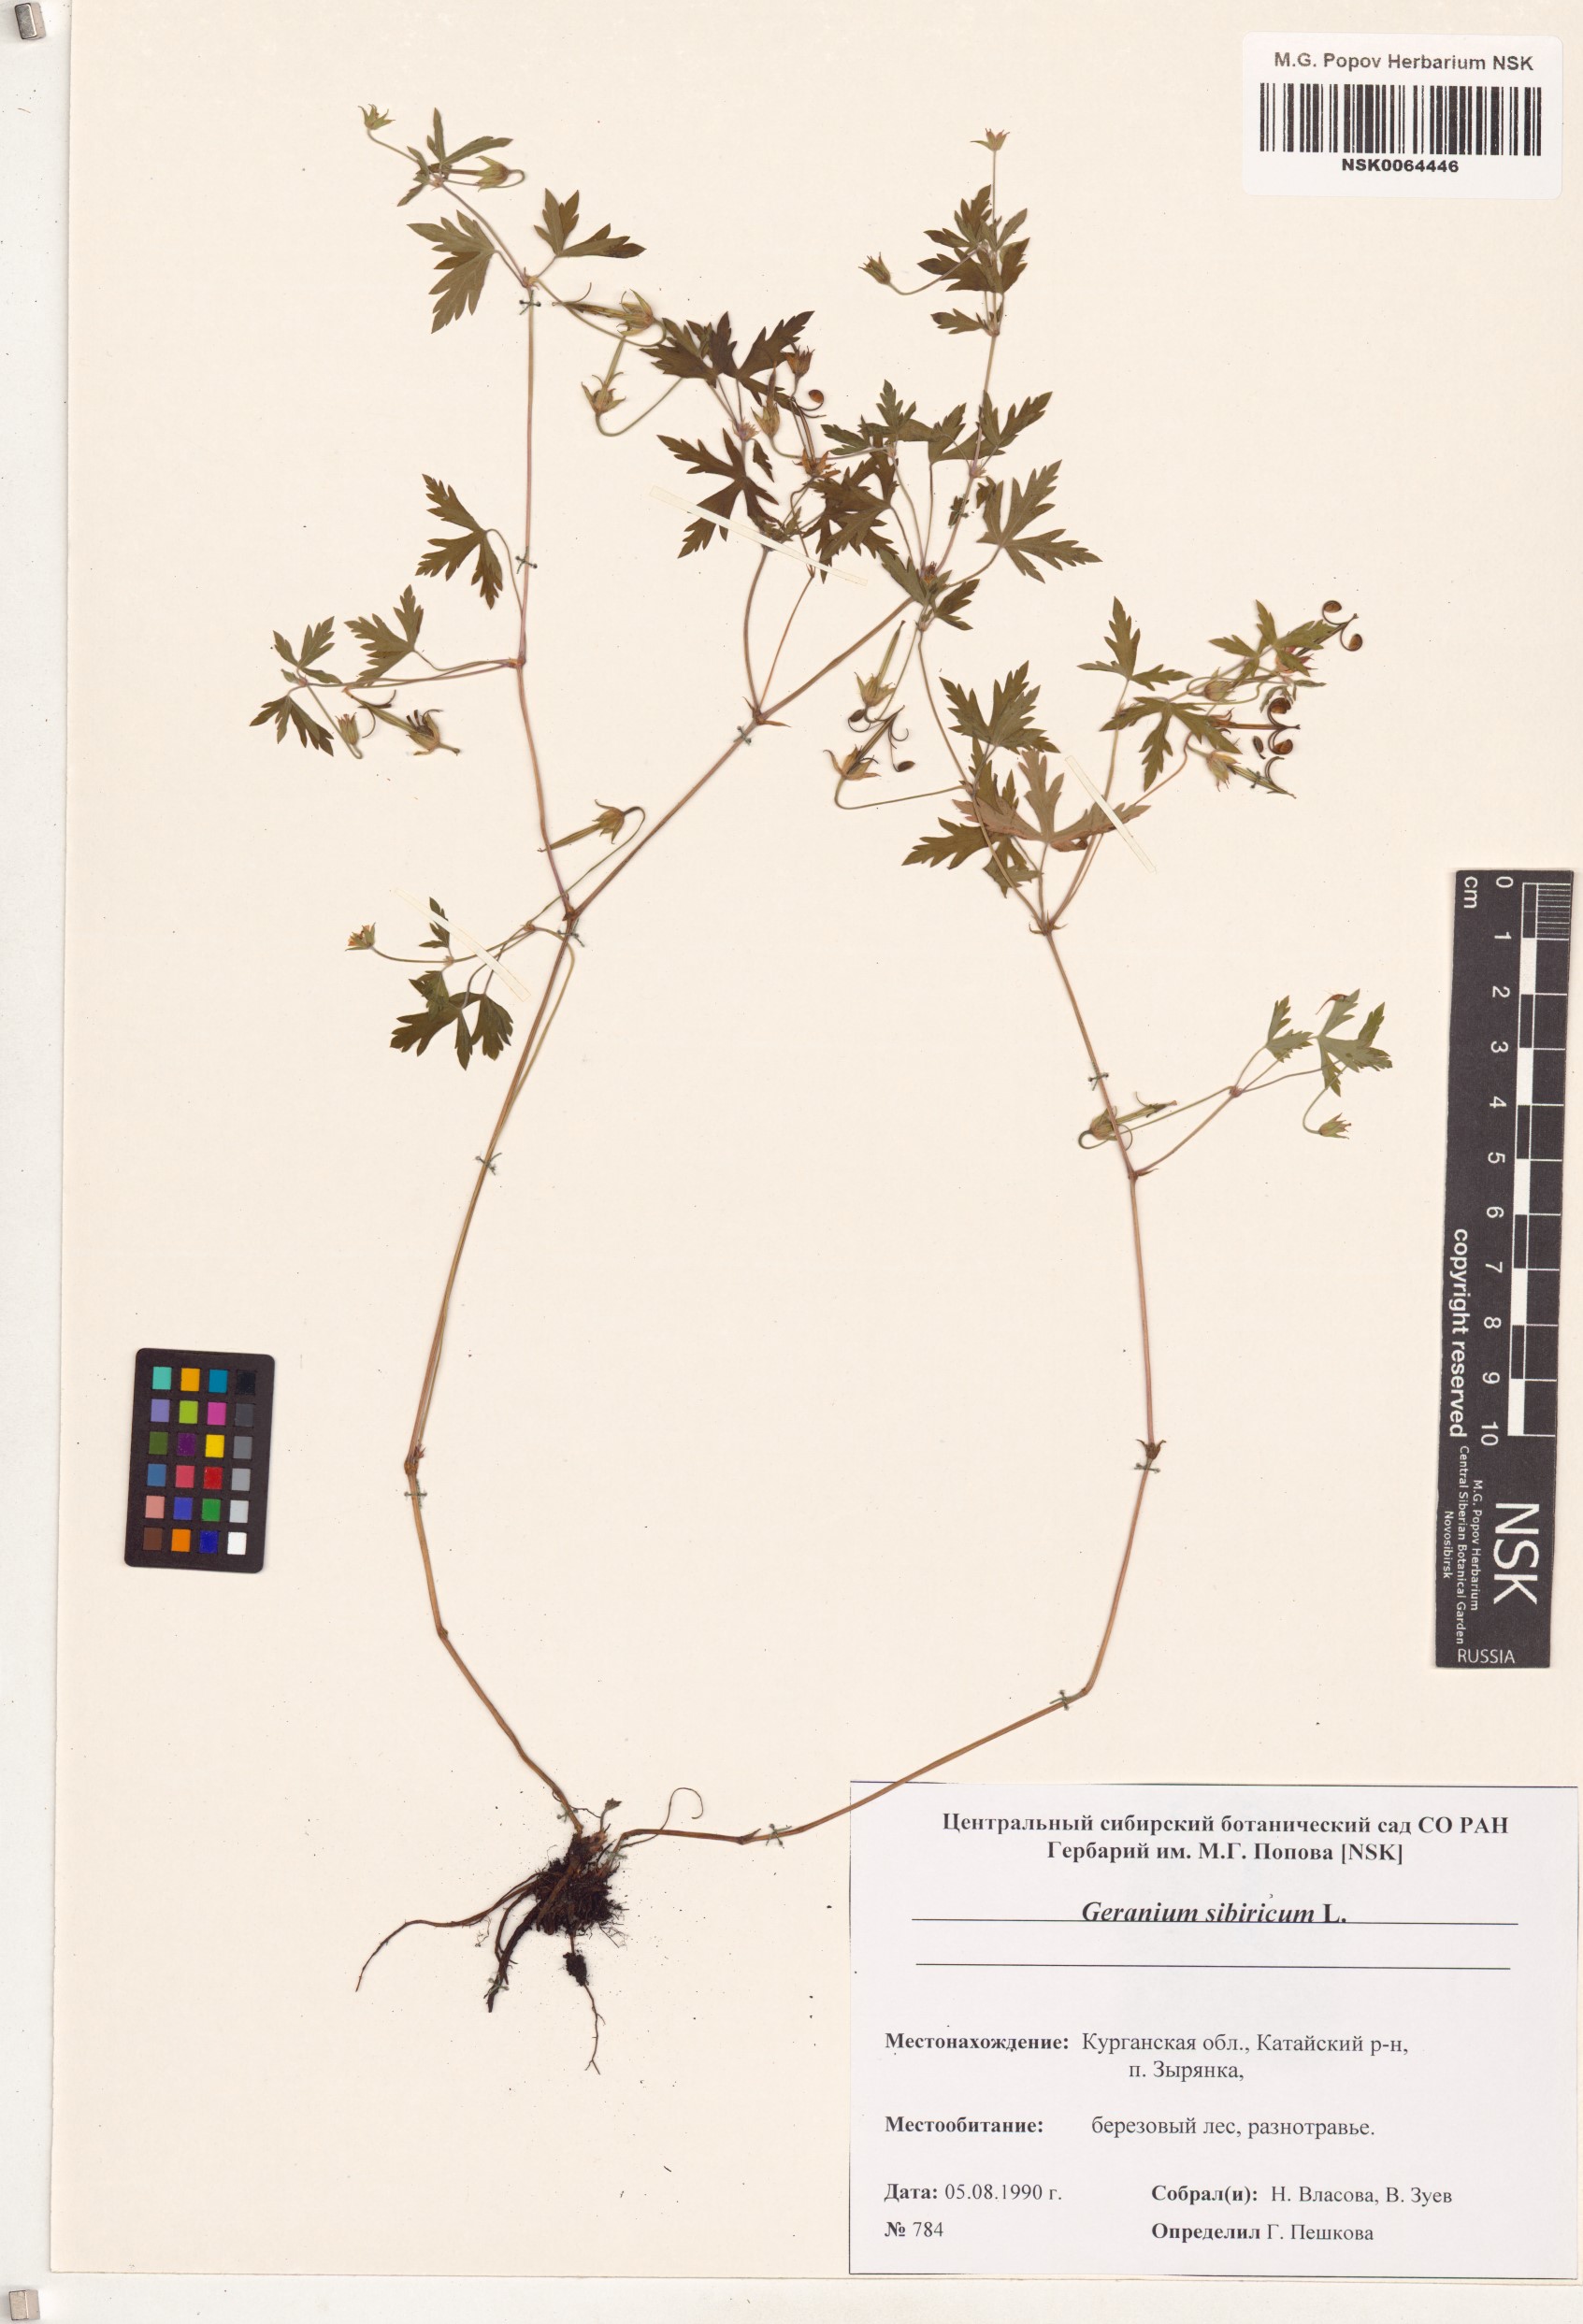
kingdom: Plantae
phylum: Tracheophyta
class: Magnoliopsida
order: Geraniales
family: Geraniaceae
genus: Geranium
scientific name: Geranium sibiricum
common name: Siberian crane's-bill
